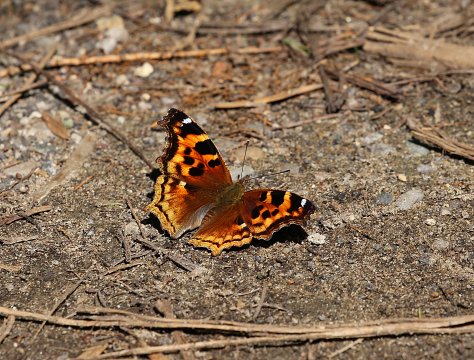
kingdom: Animalia
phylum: Arthropoda
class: Insecta
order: Lepidoptera
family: Nymphalidae
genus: Polygonia
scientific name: Polygonia vaualbum
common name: Compton Tortoiseshell
